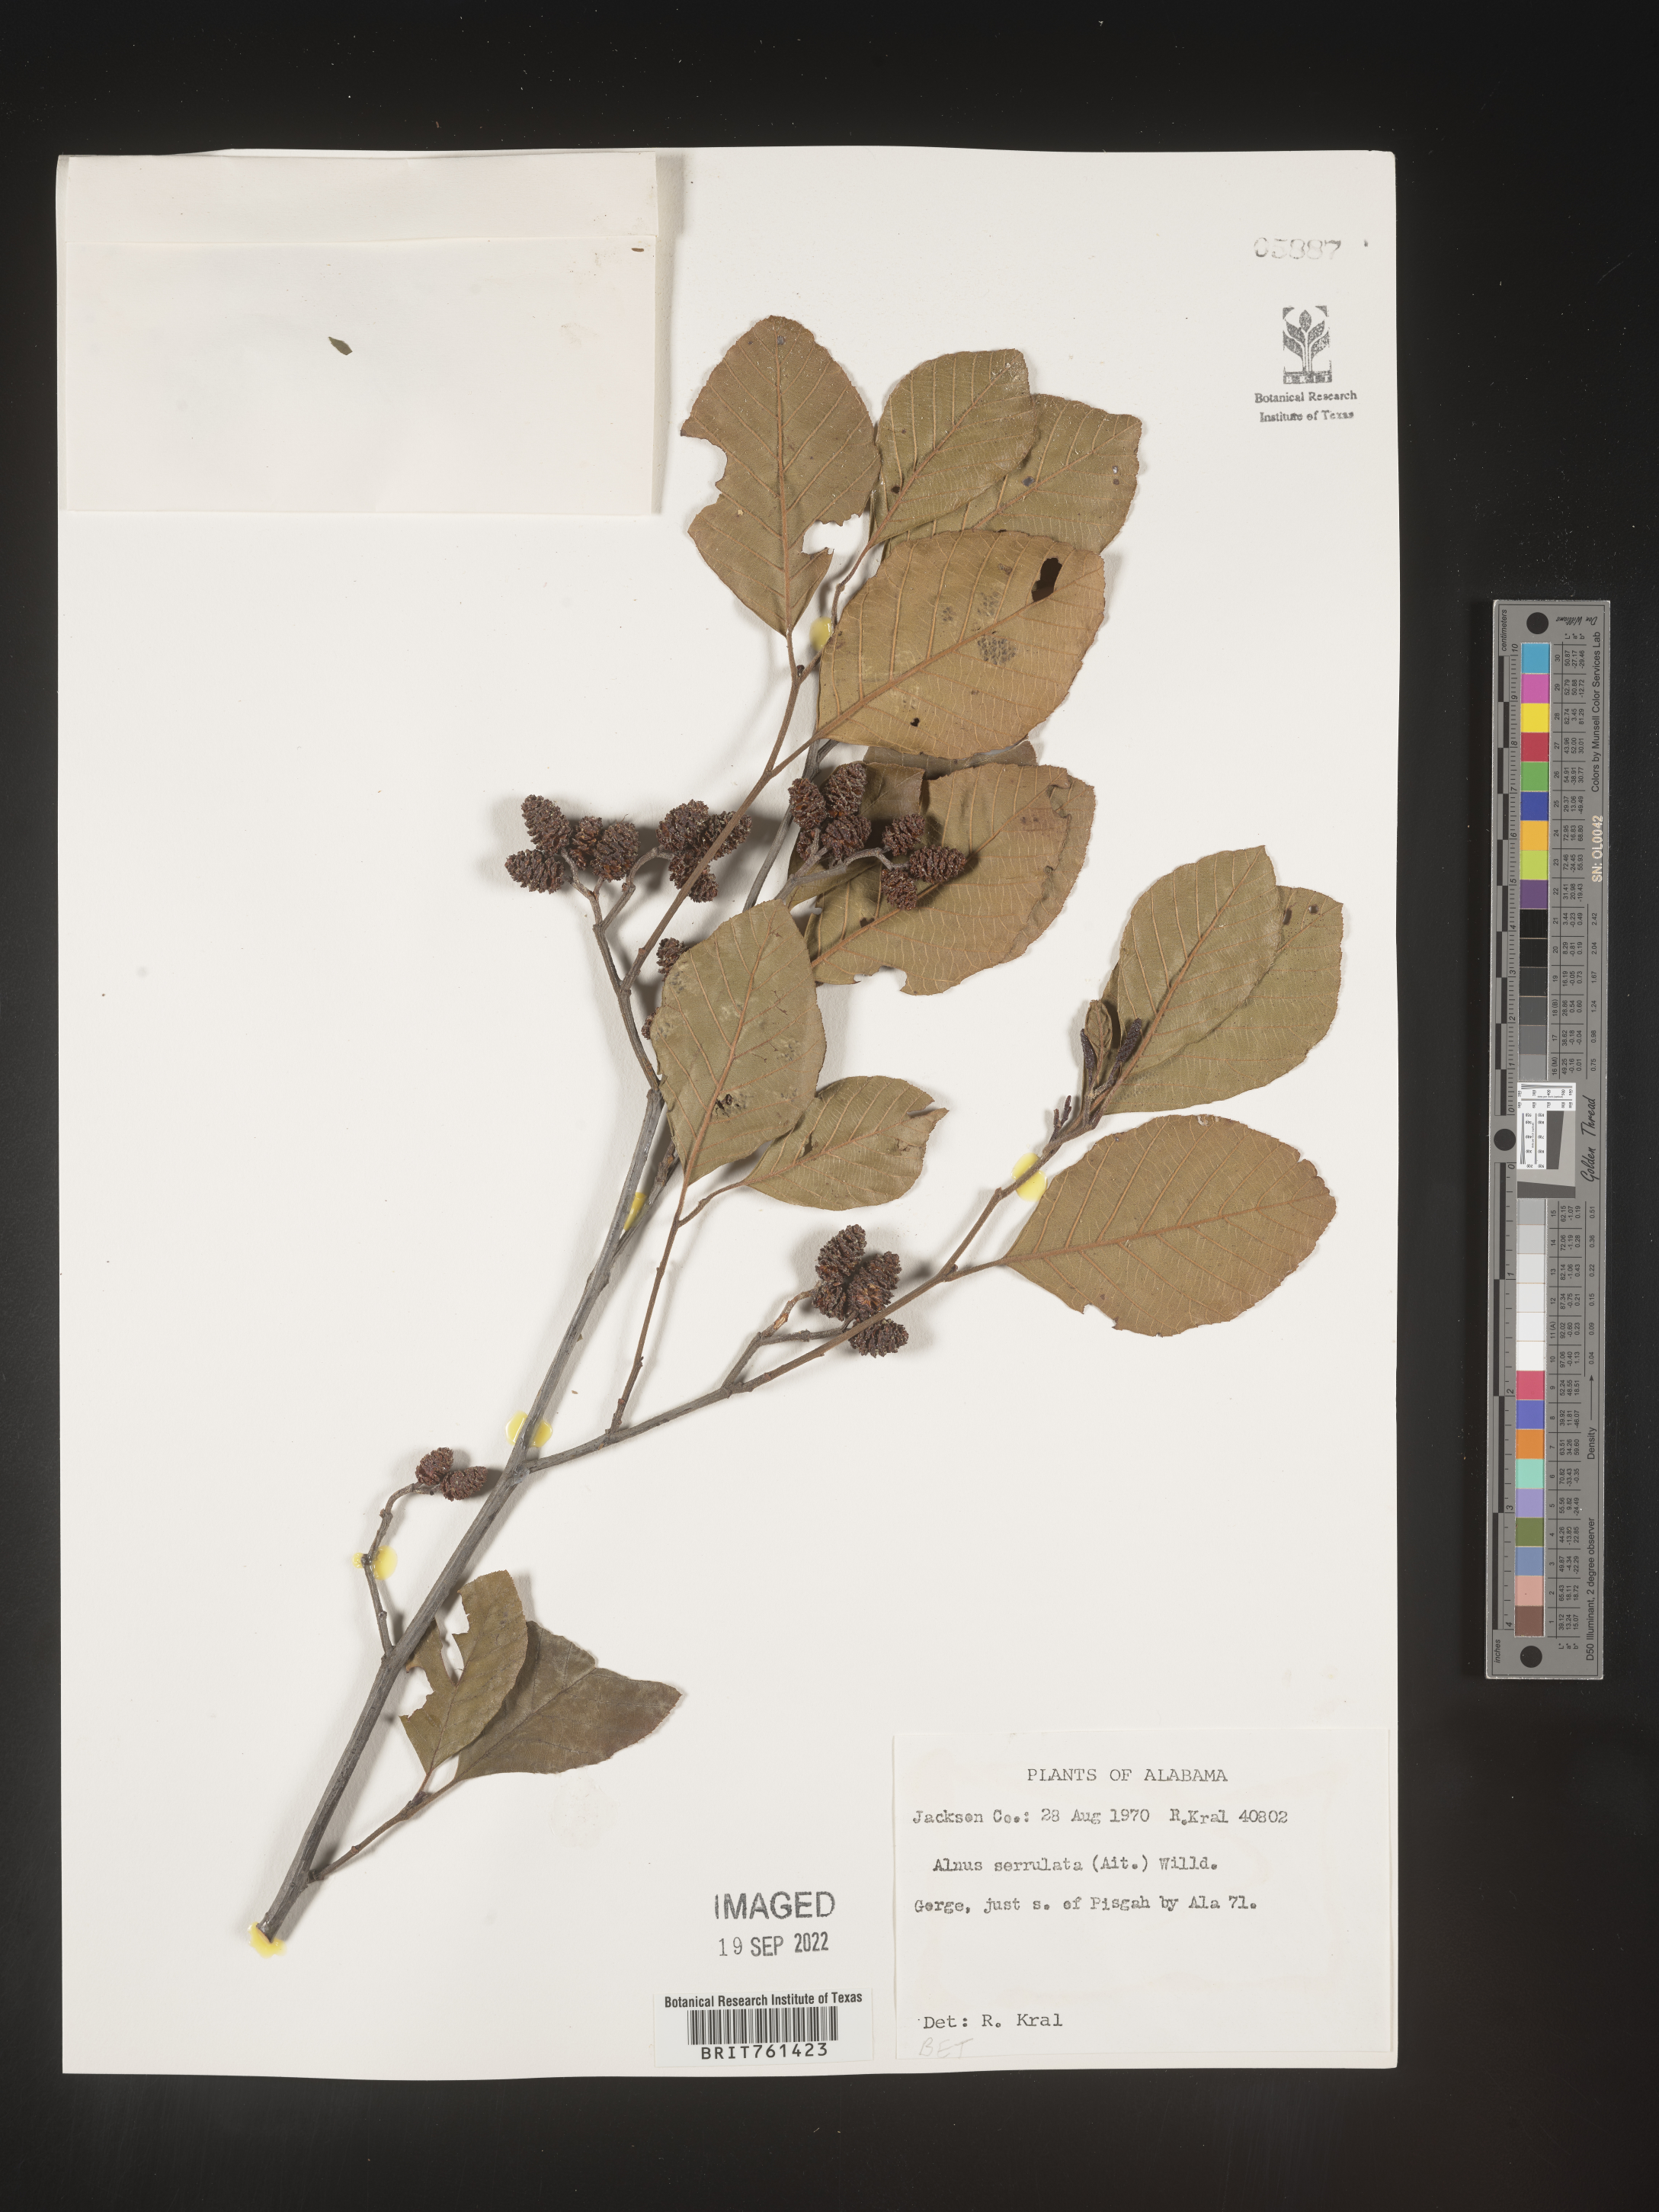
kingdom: Plantae
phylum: Tracheophyta
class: Magnoliopsida
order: Fagales
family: Betulaceae
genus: Alnus
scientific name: Alnus serrulata
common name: Hazel alder
